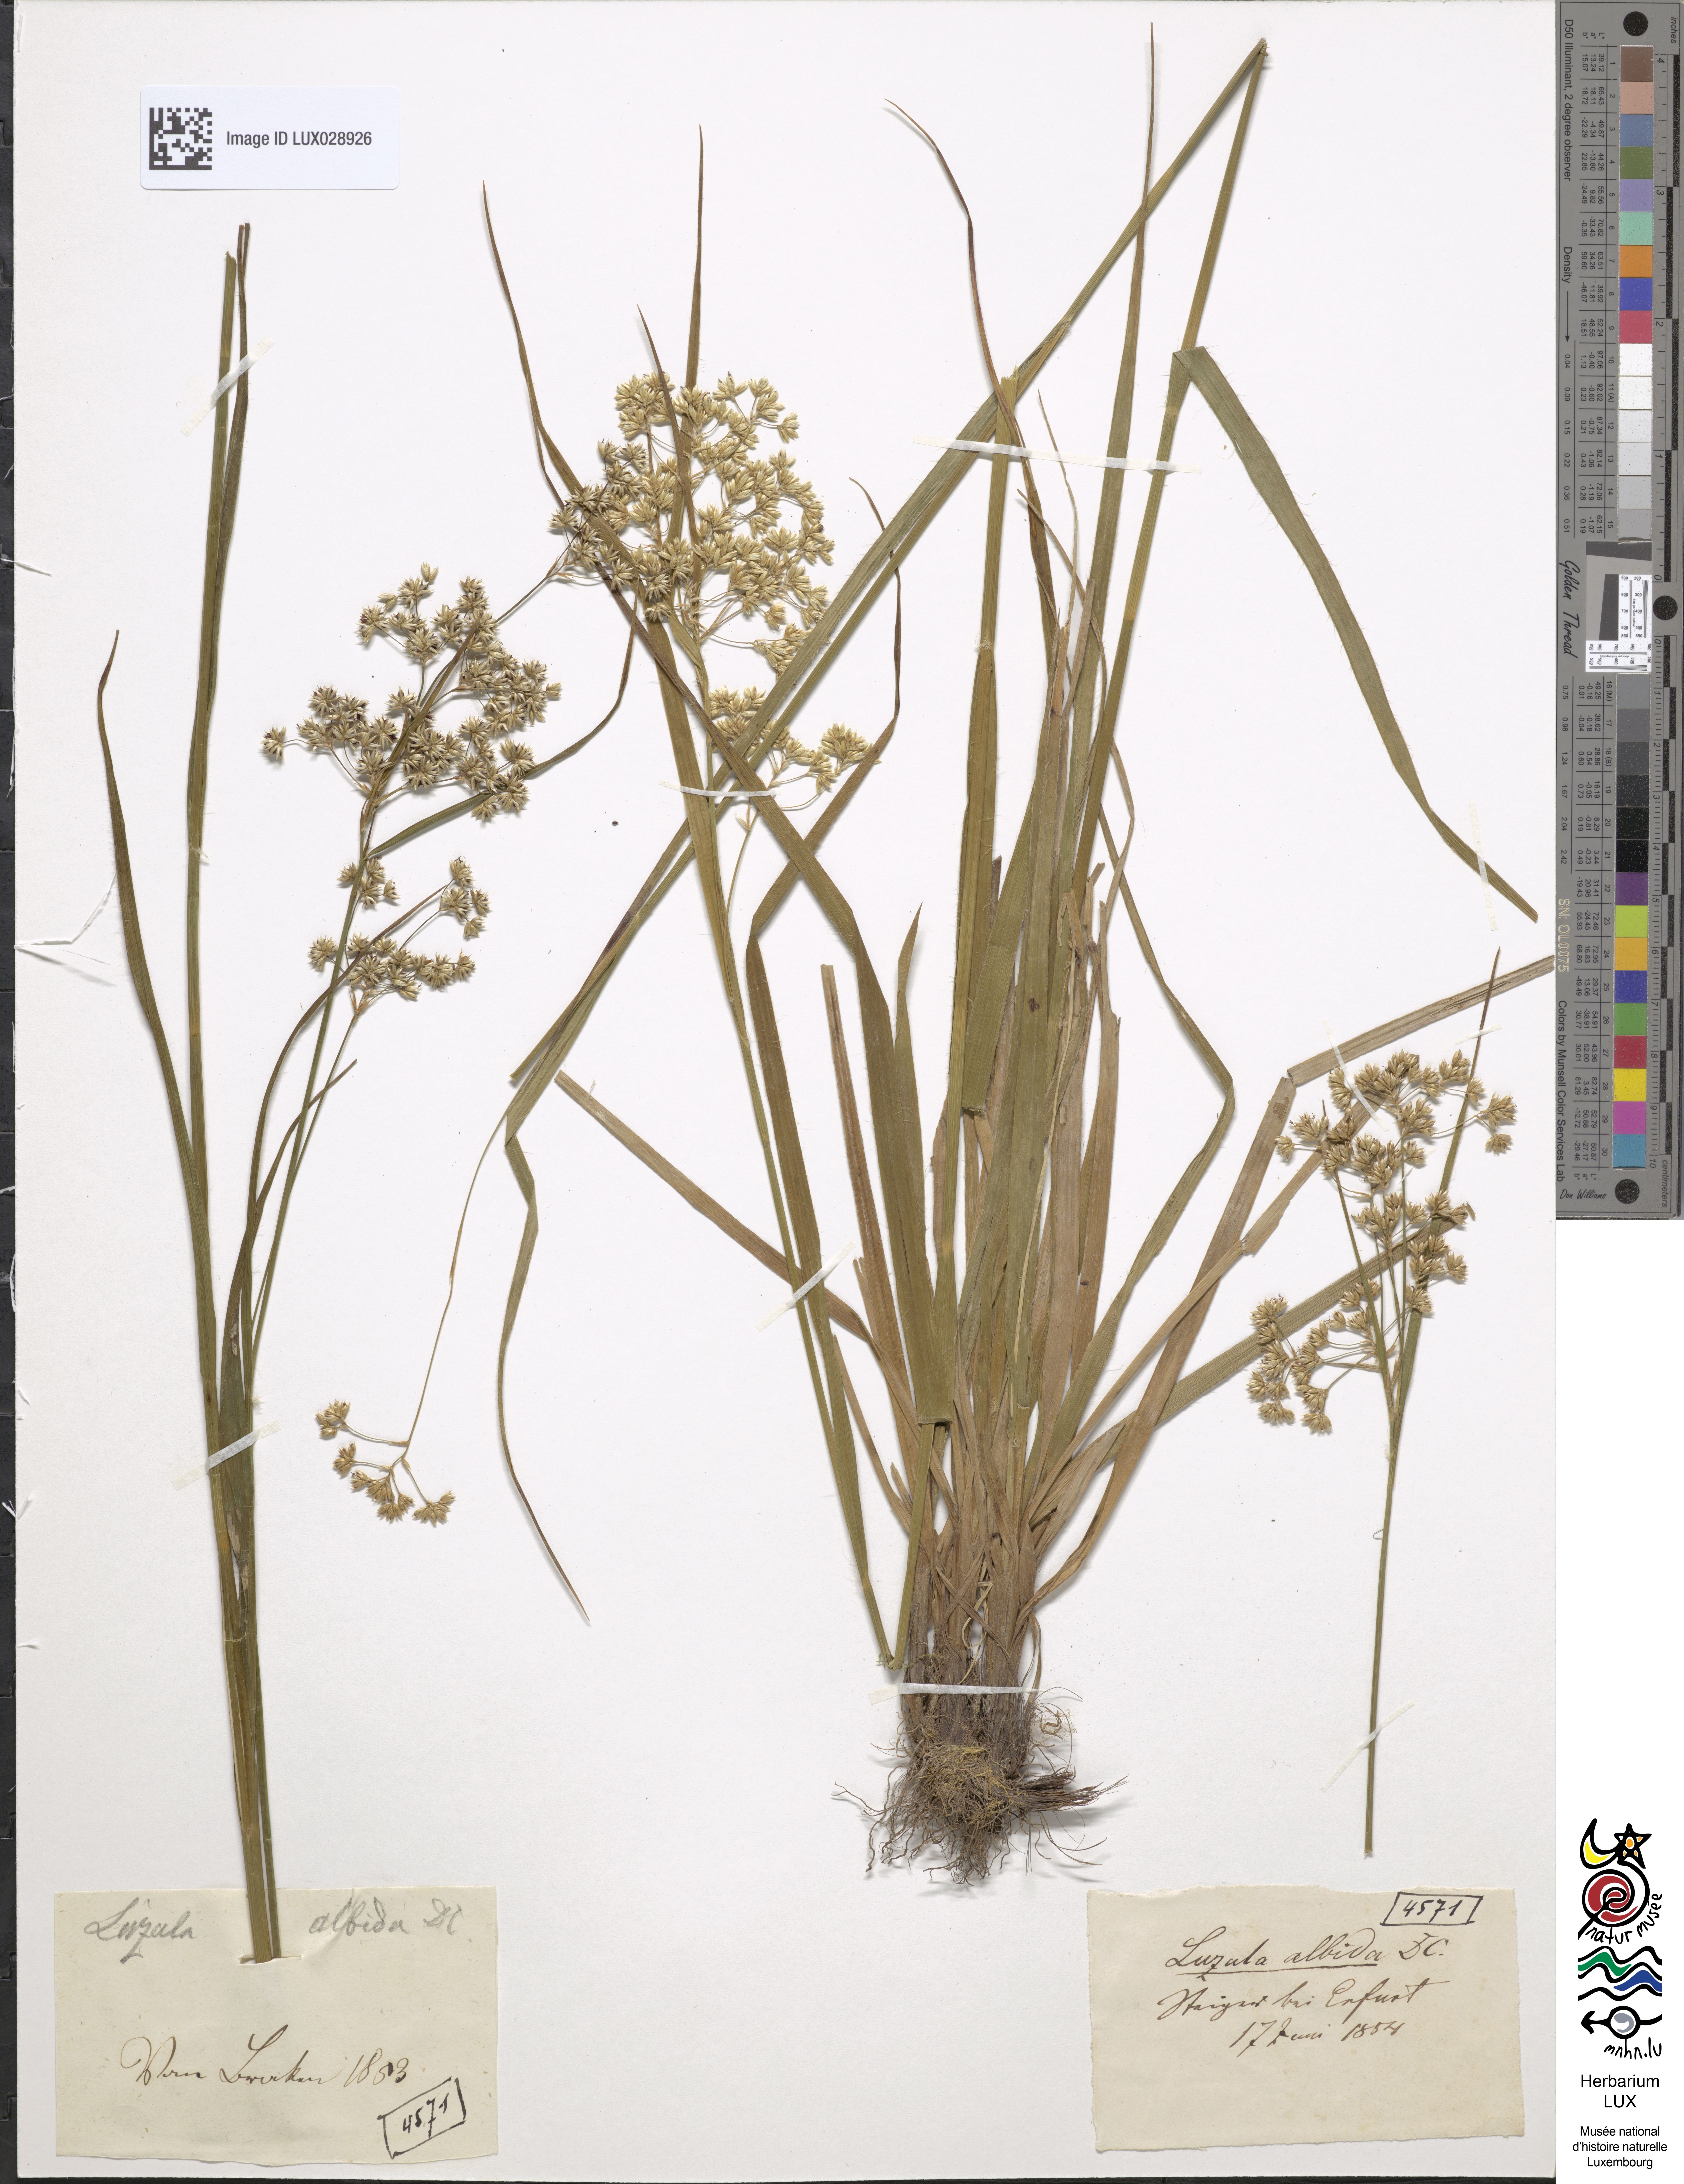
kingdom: Plantae
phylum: Tracheophyta
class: Liliopsida
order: Poales
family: Juncaceae
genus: Luzula
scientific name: Luzula luzuloides
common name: White wood-rush
